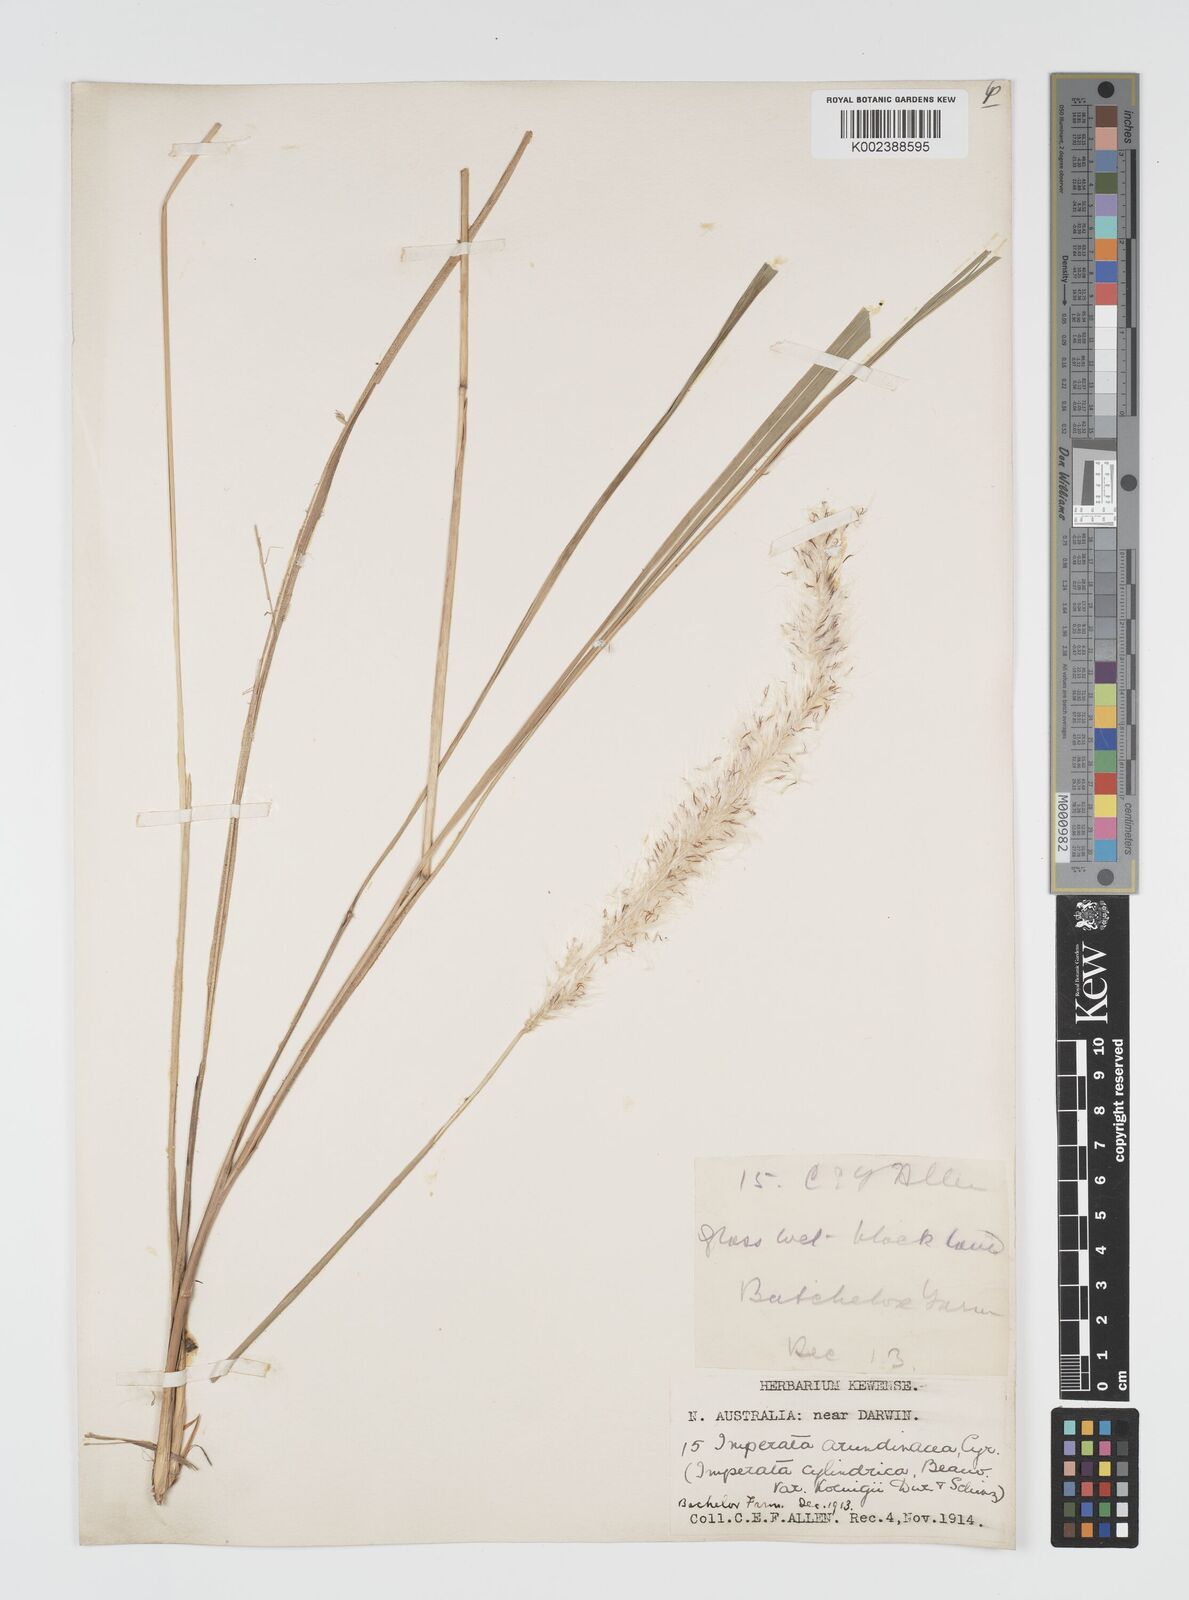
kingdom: Plantae
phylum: Tracheophyta
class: Liliopsida
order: Poales
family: Poaceae
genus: Imperata
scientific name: Imperata cylindrica
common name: Cogongrass
